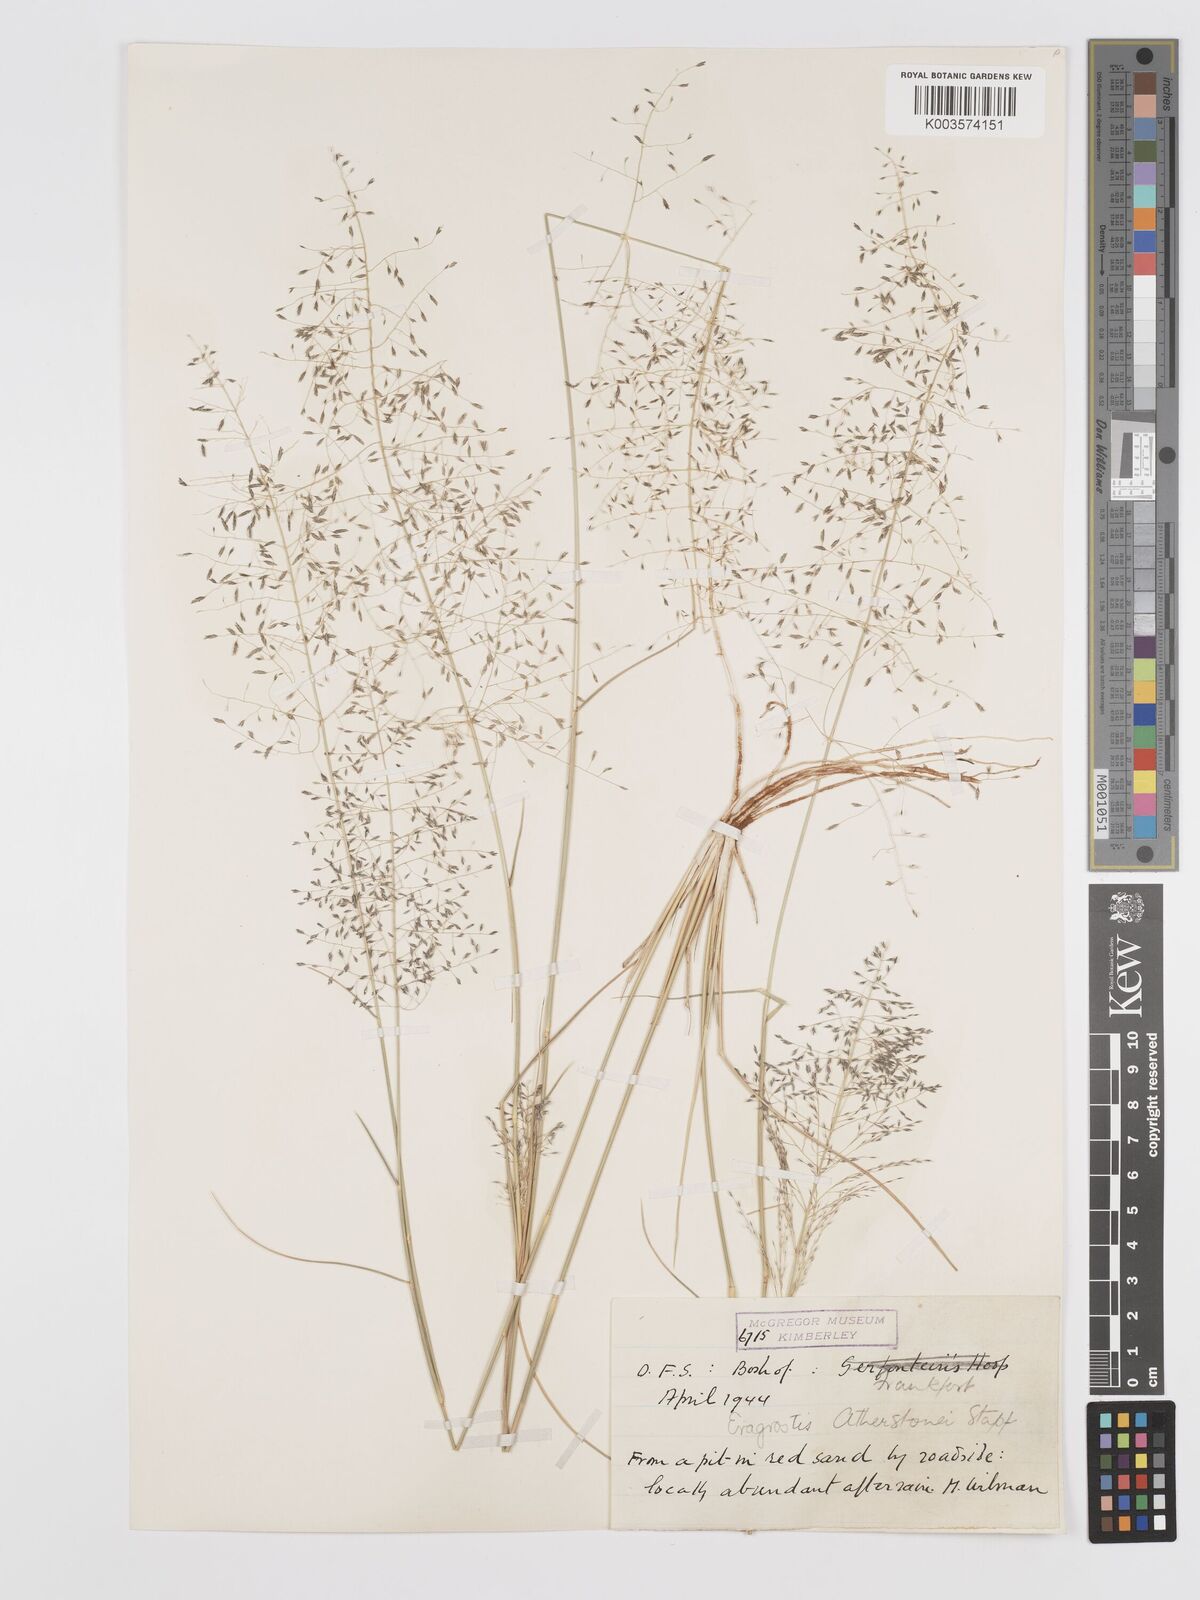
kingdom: Plantae
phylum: Tracheophyta
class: Liliopsida
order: Poales
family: Poaceae
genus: Eragrostis
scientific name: Eragrostis cylindriflora
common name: Cylinderflower lovegrass
